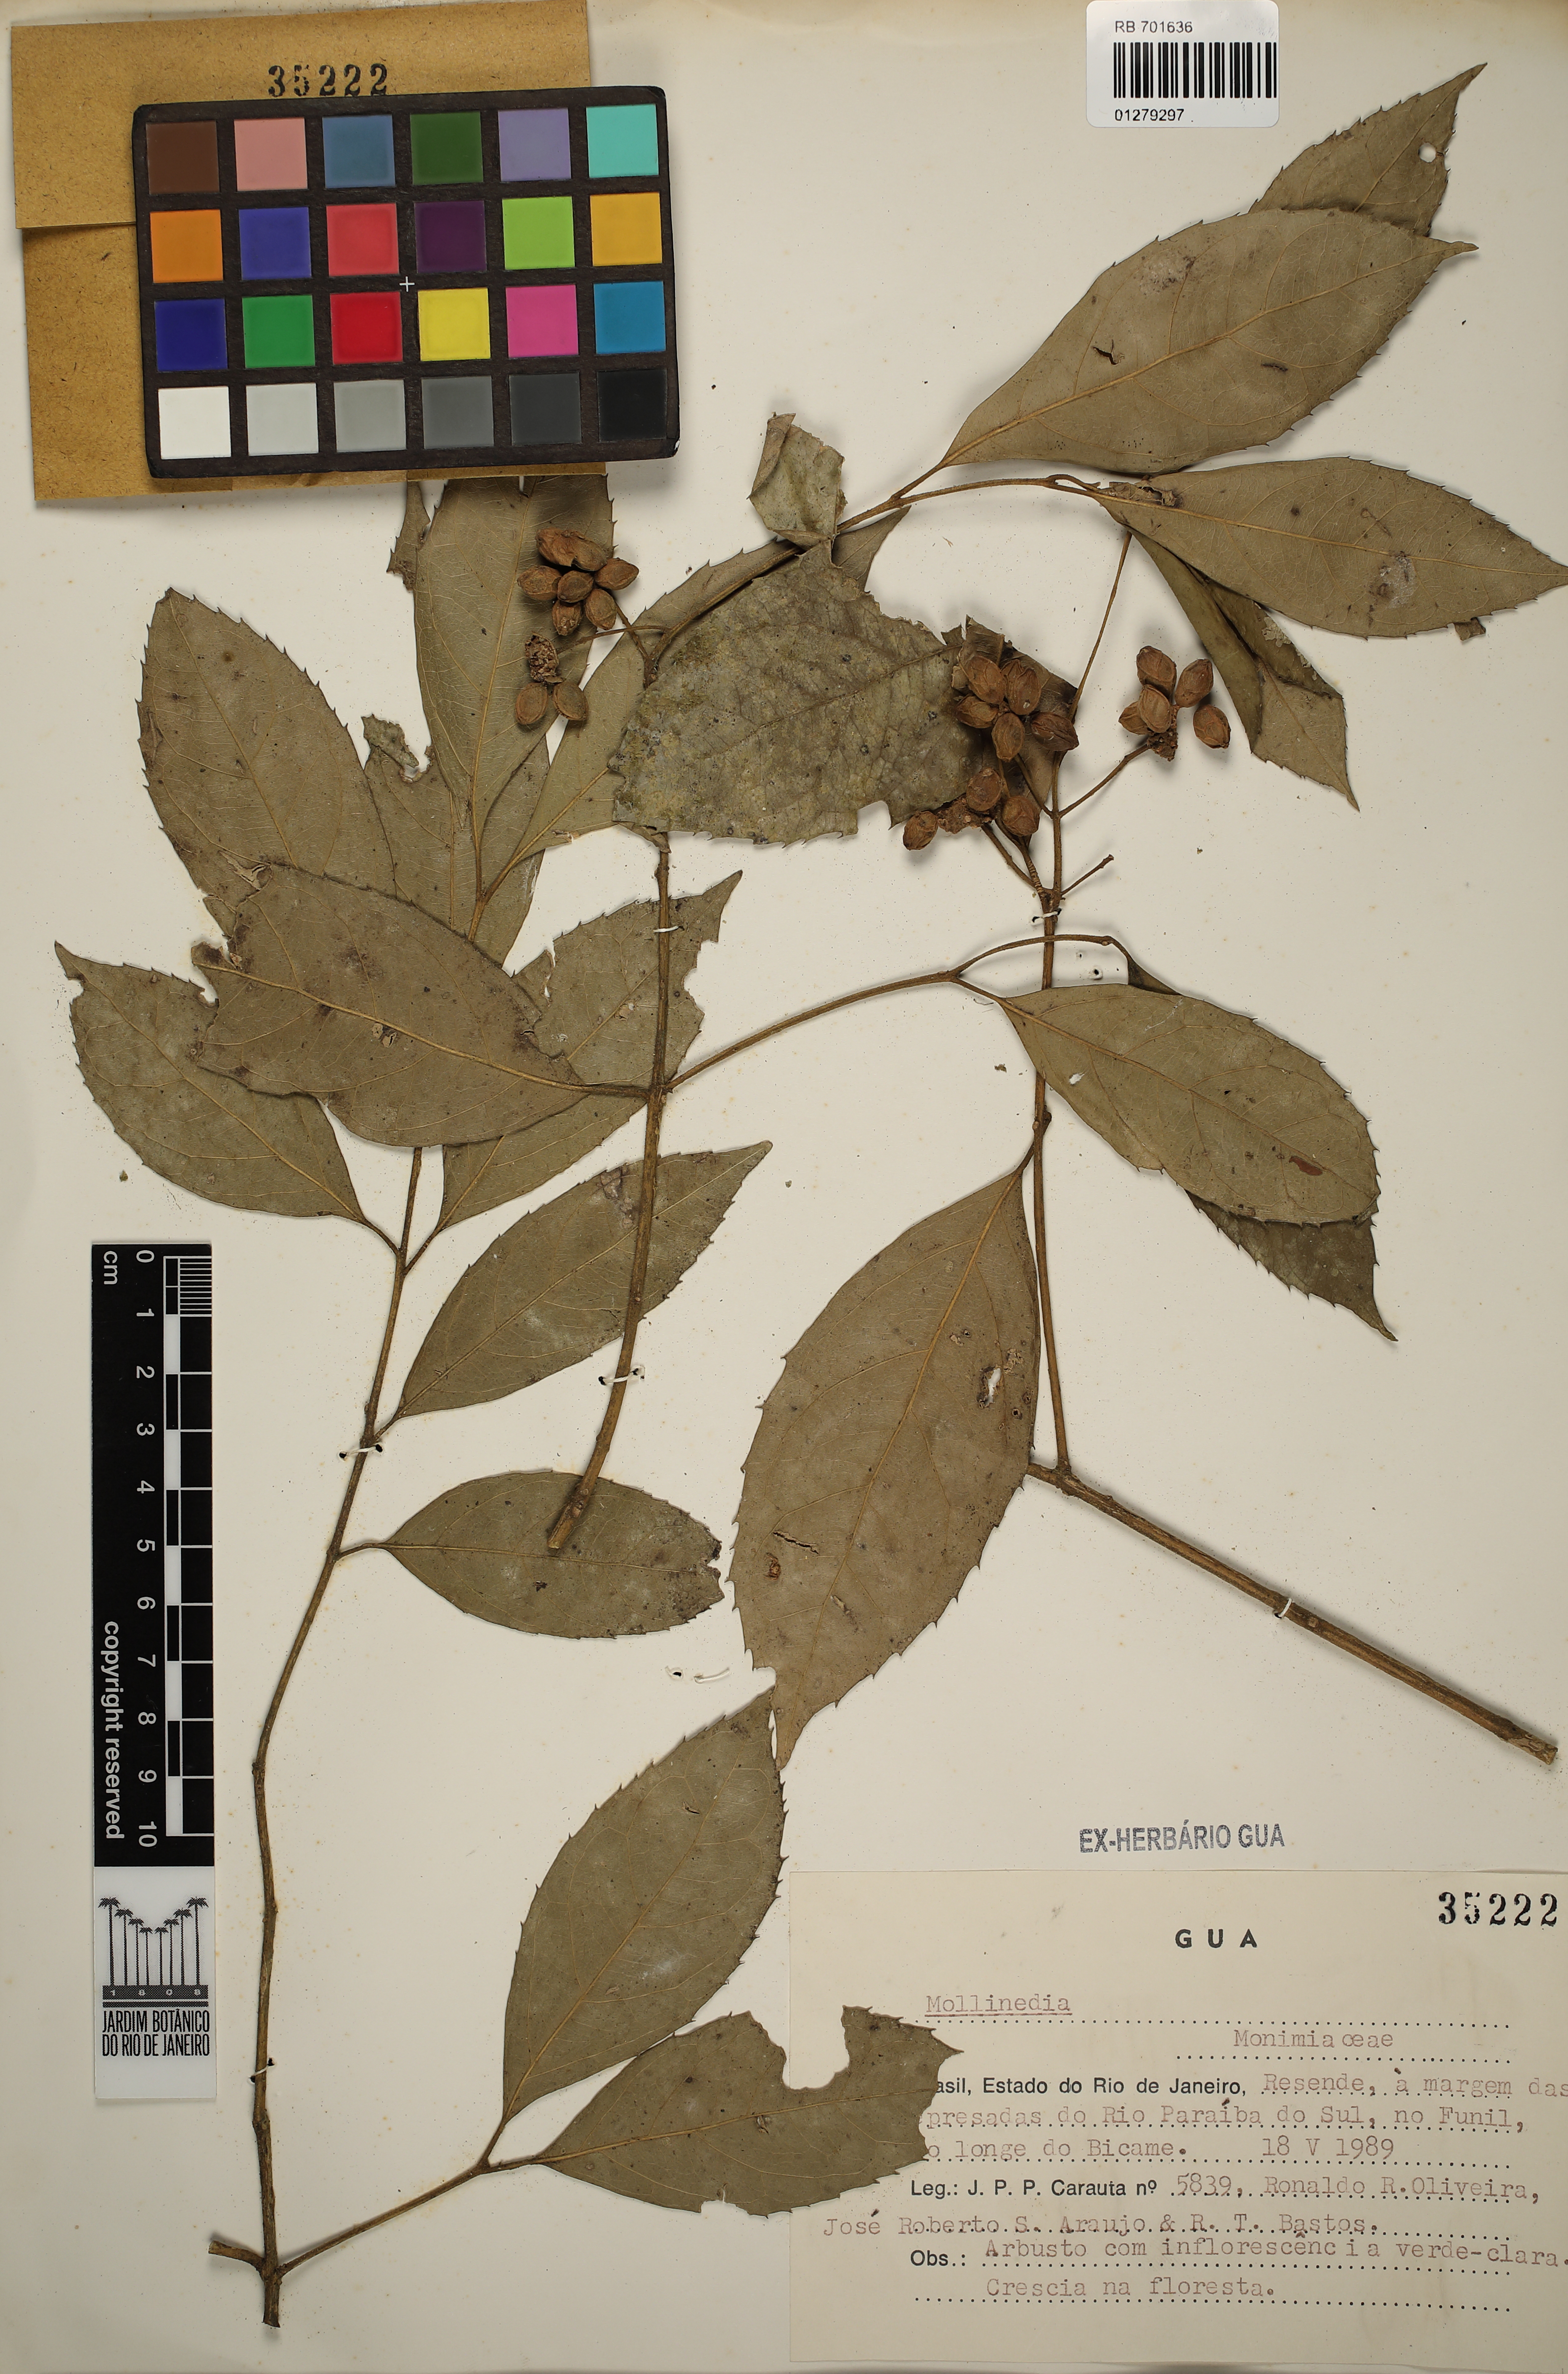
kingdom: Plantae
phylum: Tracheophyta
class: Magnoliopsida
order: Laurales
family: Monimiaceae
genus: Mollinedia
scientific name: Mollinedia
